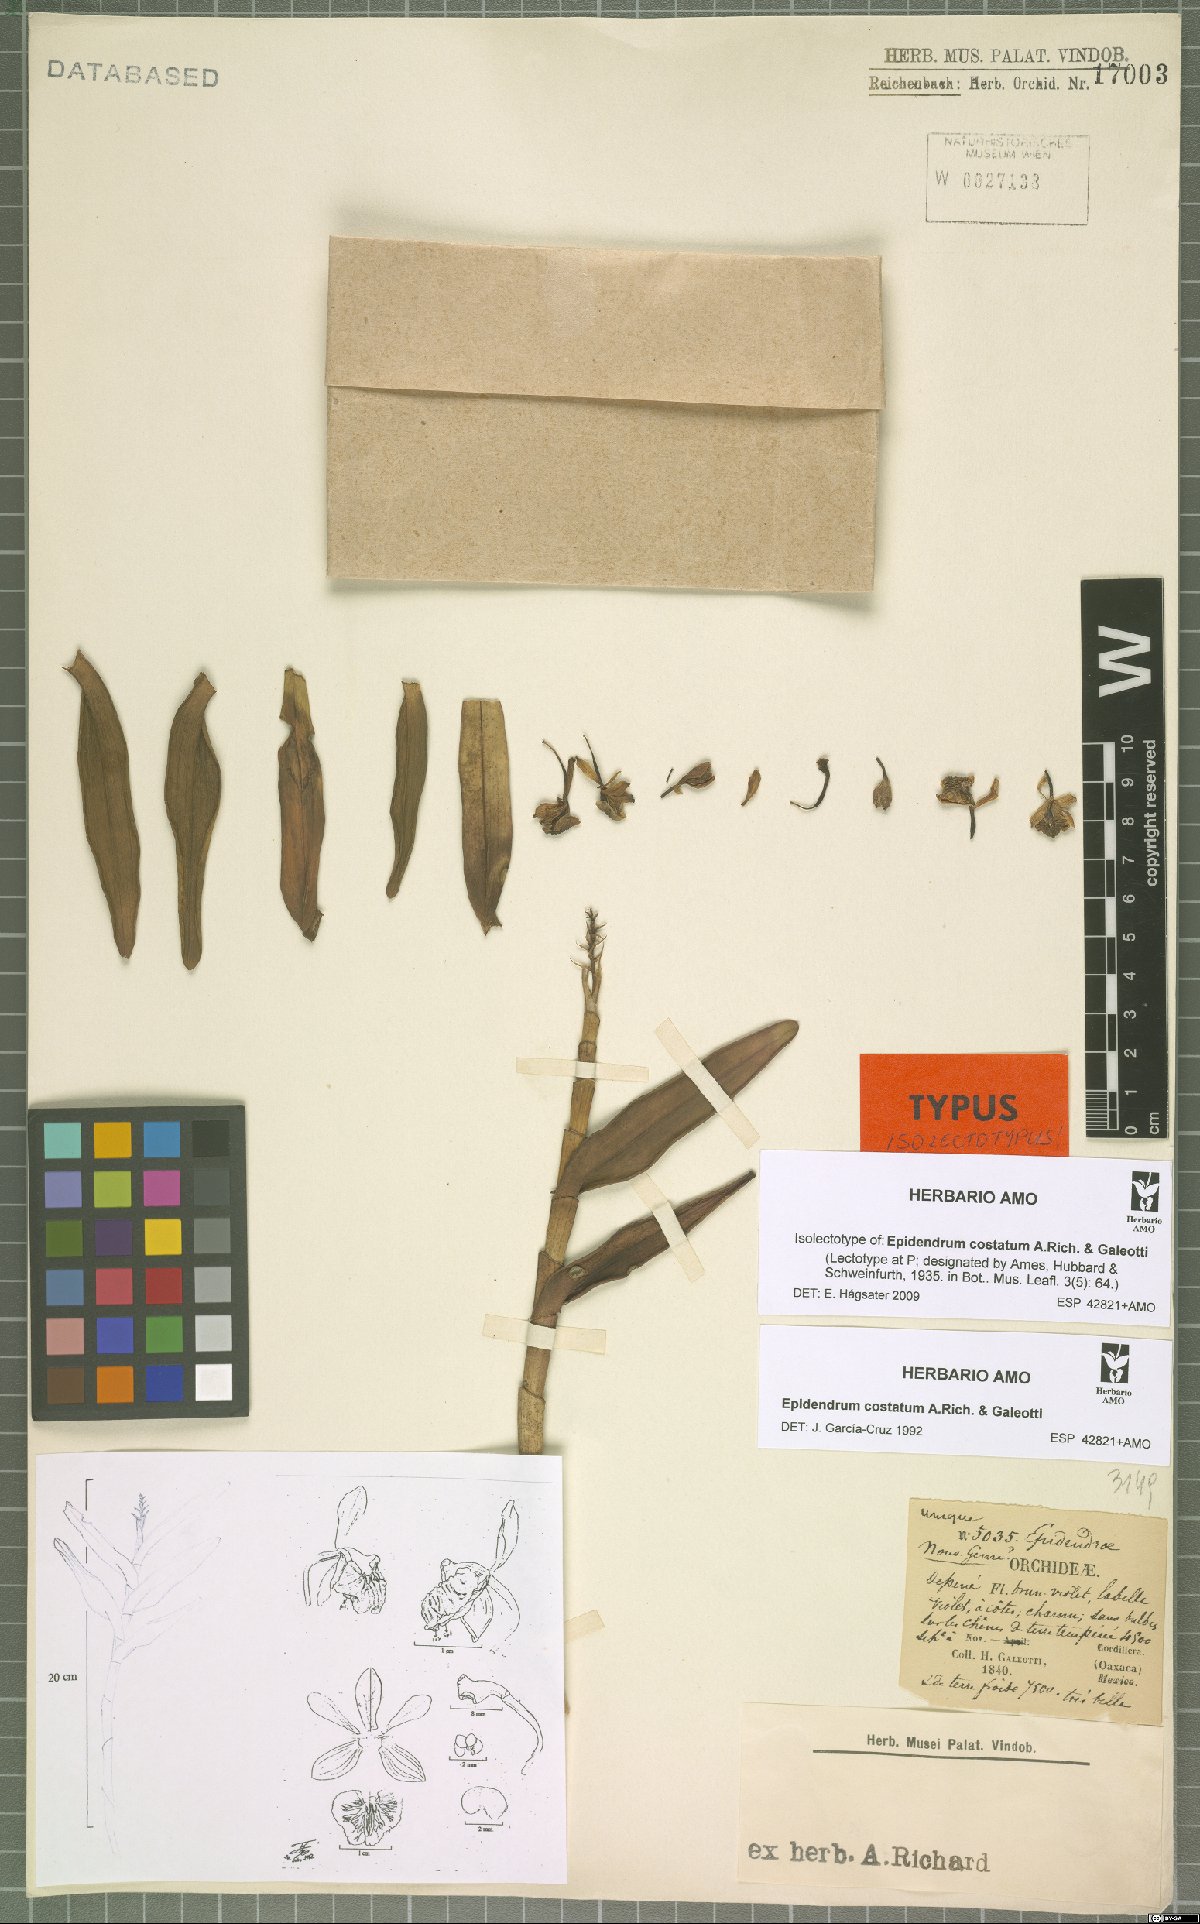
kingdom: Plantae
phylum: Tracheophyta
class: Liliopsida
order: Asparagales
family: Orchidaceae
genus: Epidendrum
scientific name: Epidendrum costatum
